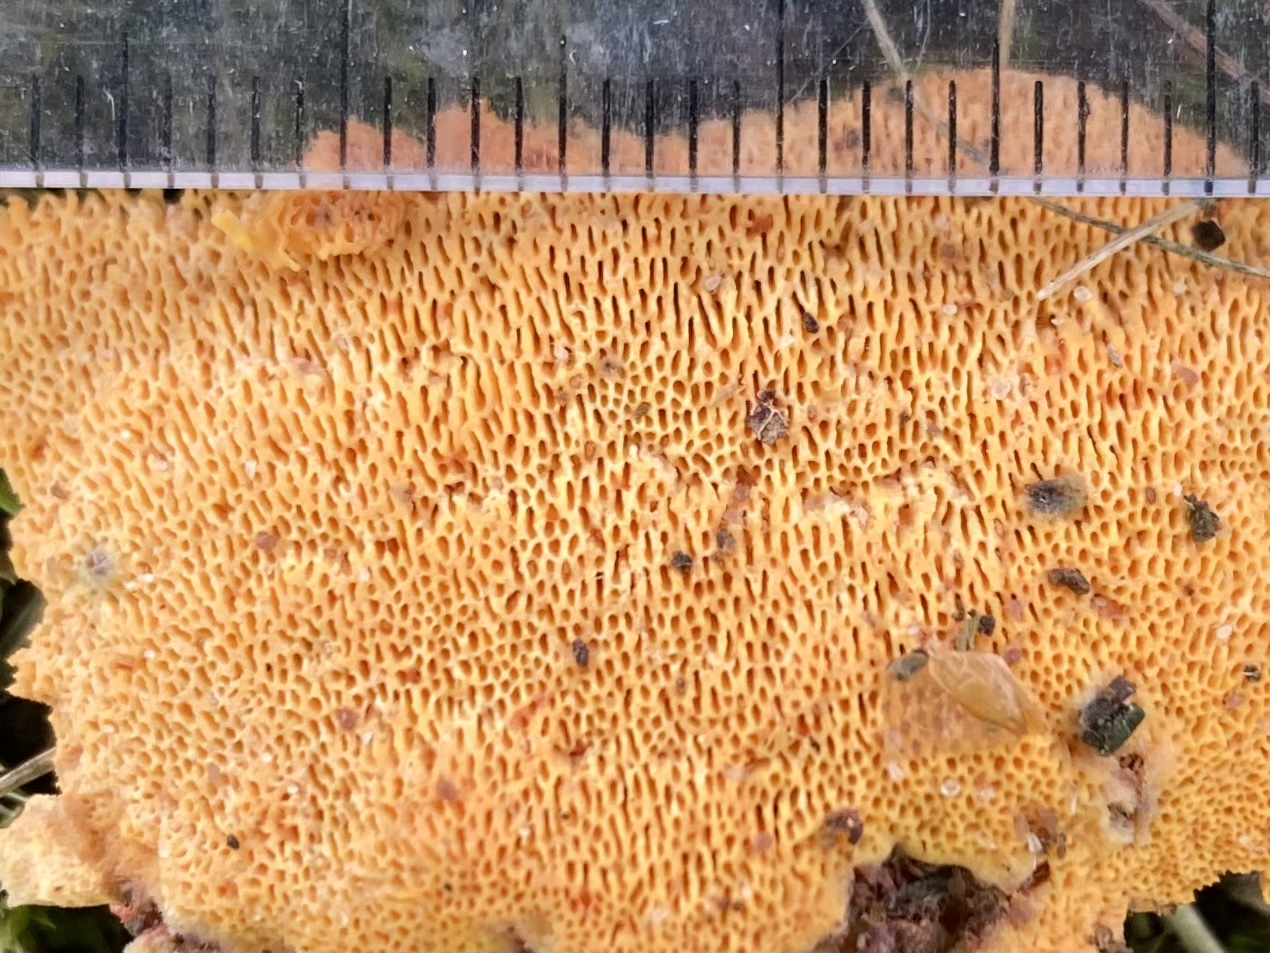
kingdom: Fungi
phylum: Basidiomycota
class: Agaricomycetes
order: Polyporales
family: Polyporaceae
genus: Erastia
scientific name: Erastia aurantiaca
